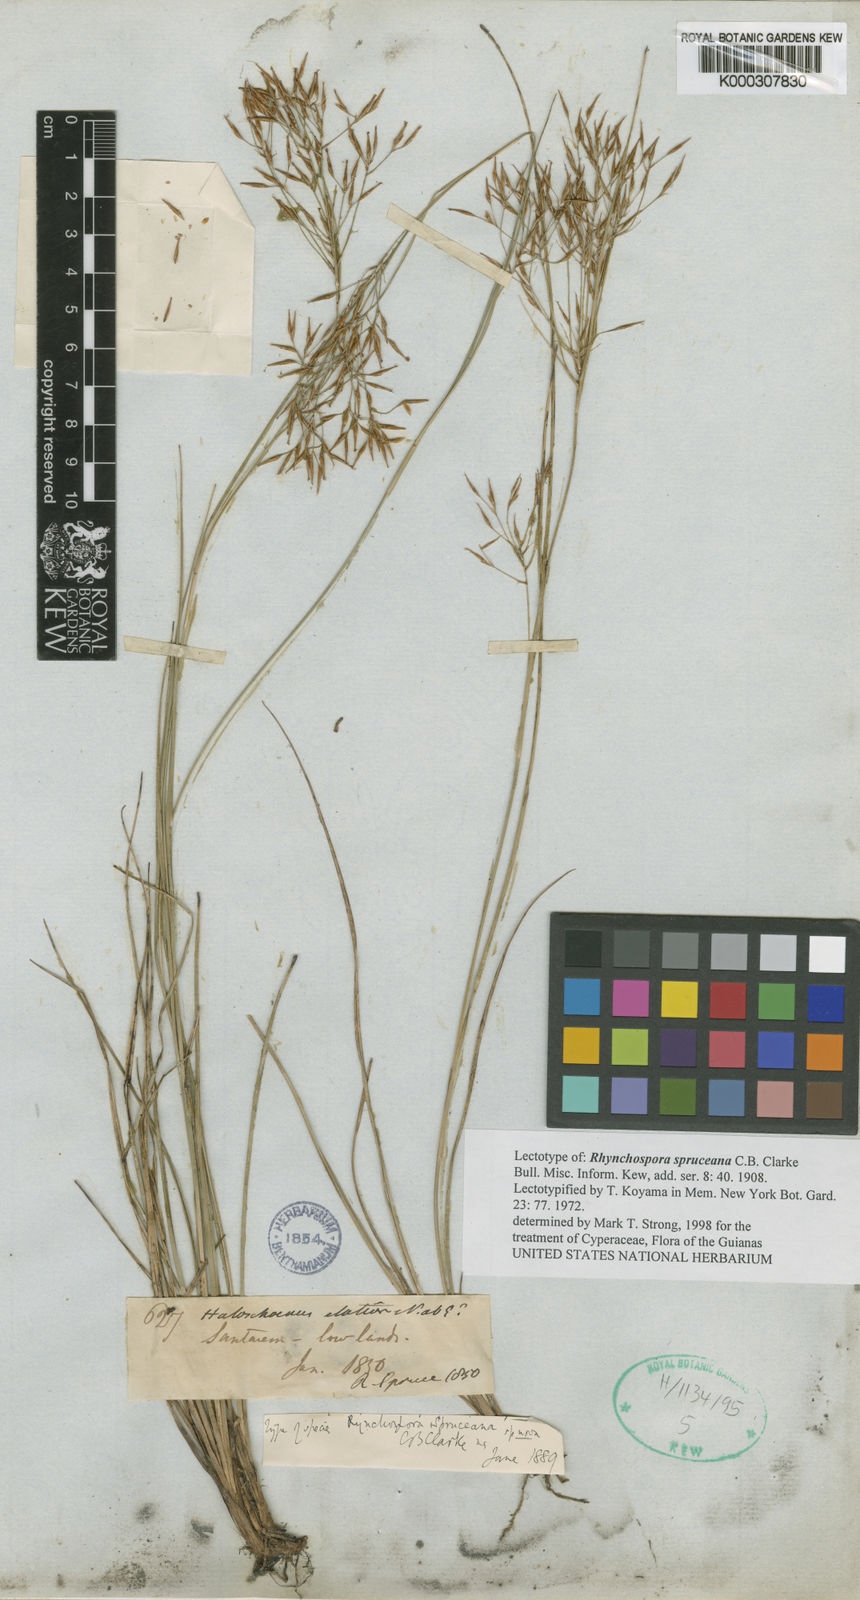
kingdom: Plantae
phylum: Tracheophyta
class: Liliopsida
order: Poales
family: Cyperaceae
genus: Rhynchospora
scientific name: Rhynchospora spruceana
